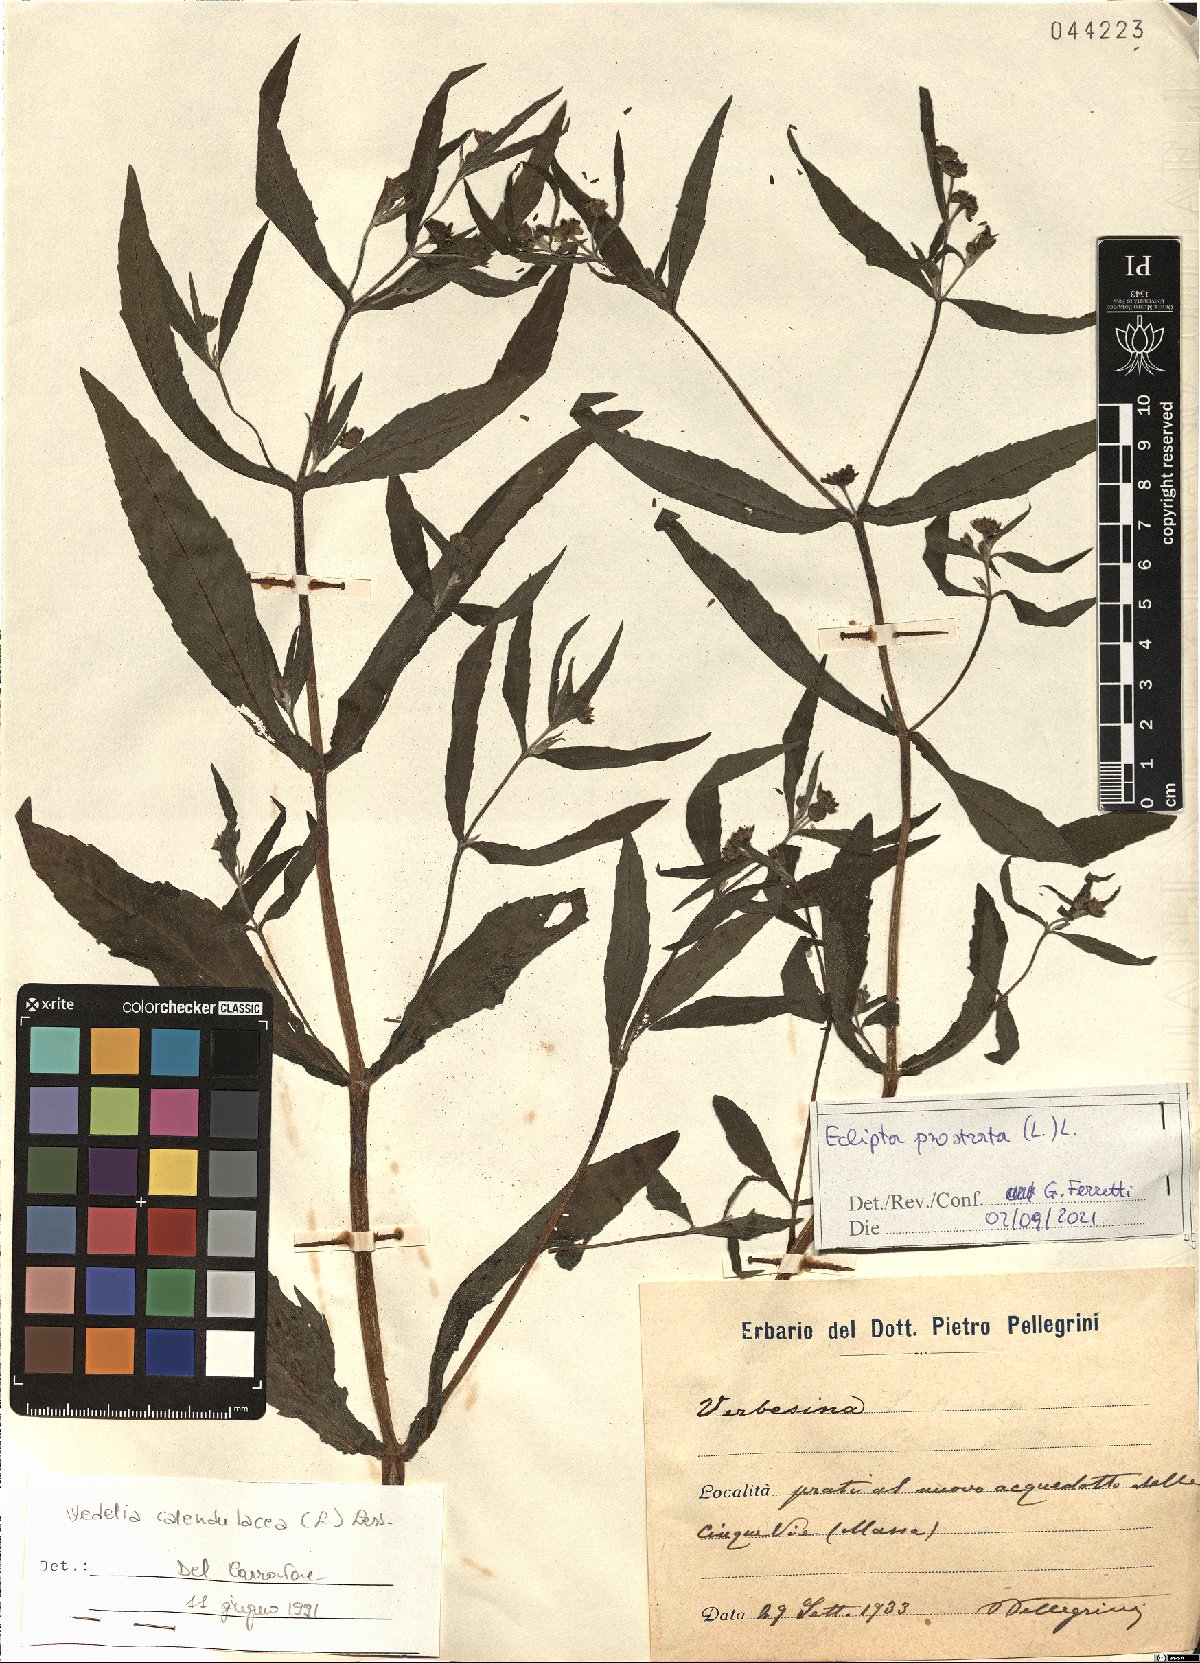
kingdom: Plantae
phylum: Tracheophyta
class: Magnoliopsida
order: Asterales
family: Asteraceae
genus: Eclipta
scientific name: Eclipta prostrata
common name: False daisy
